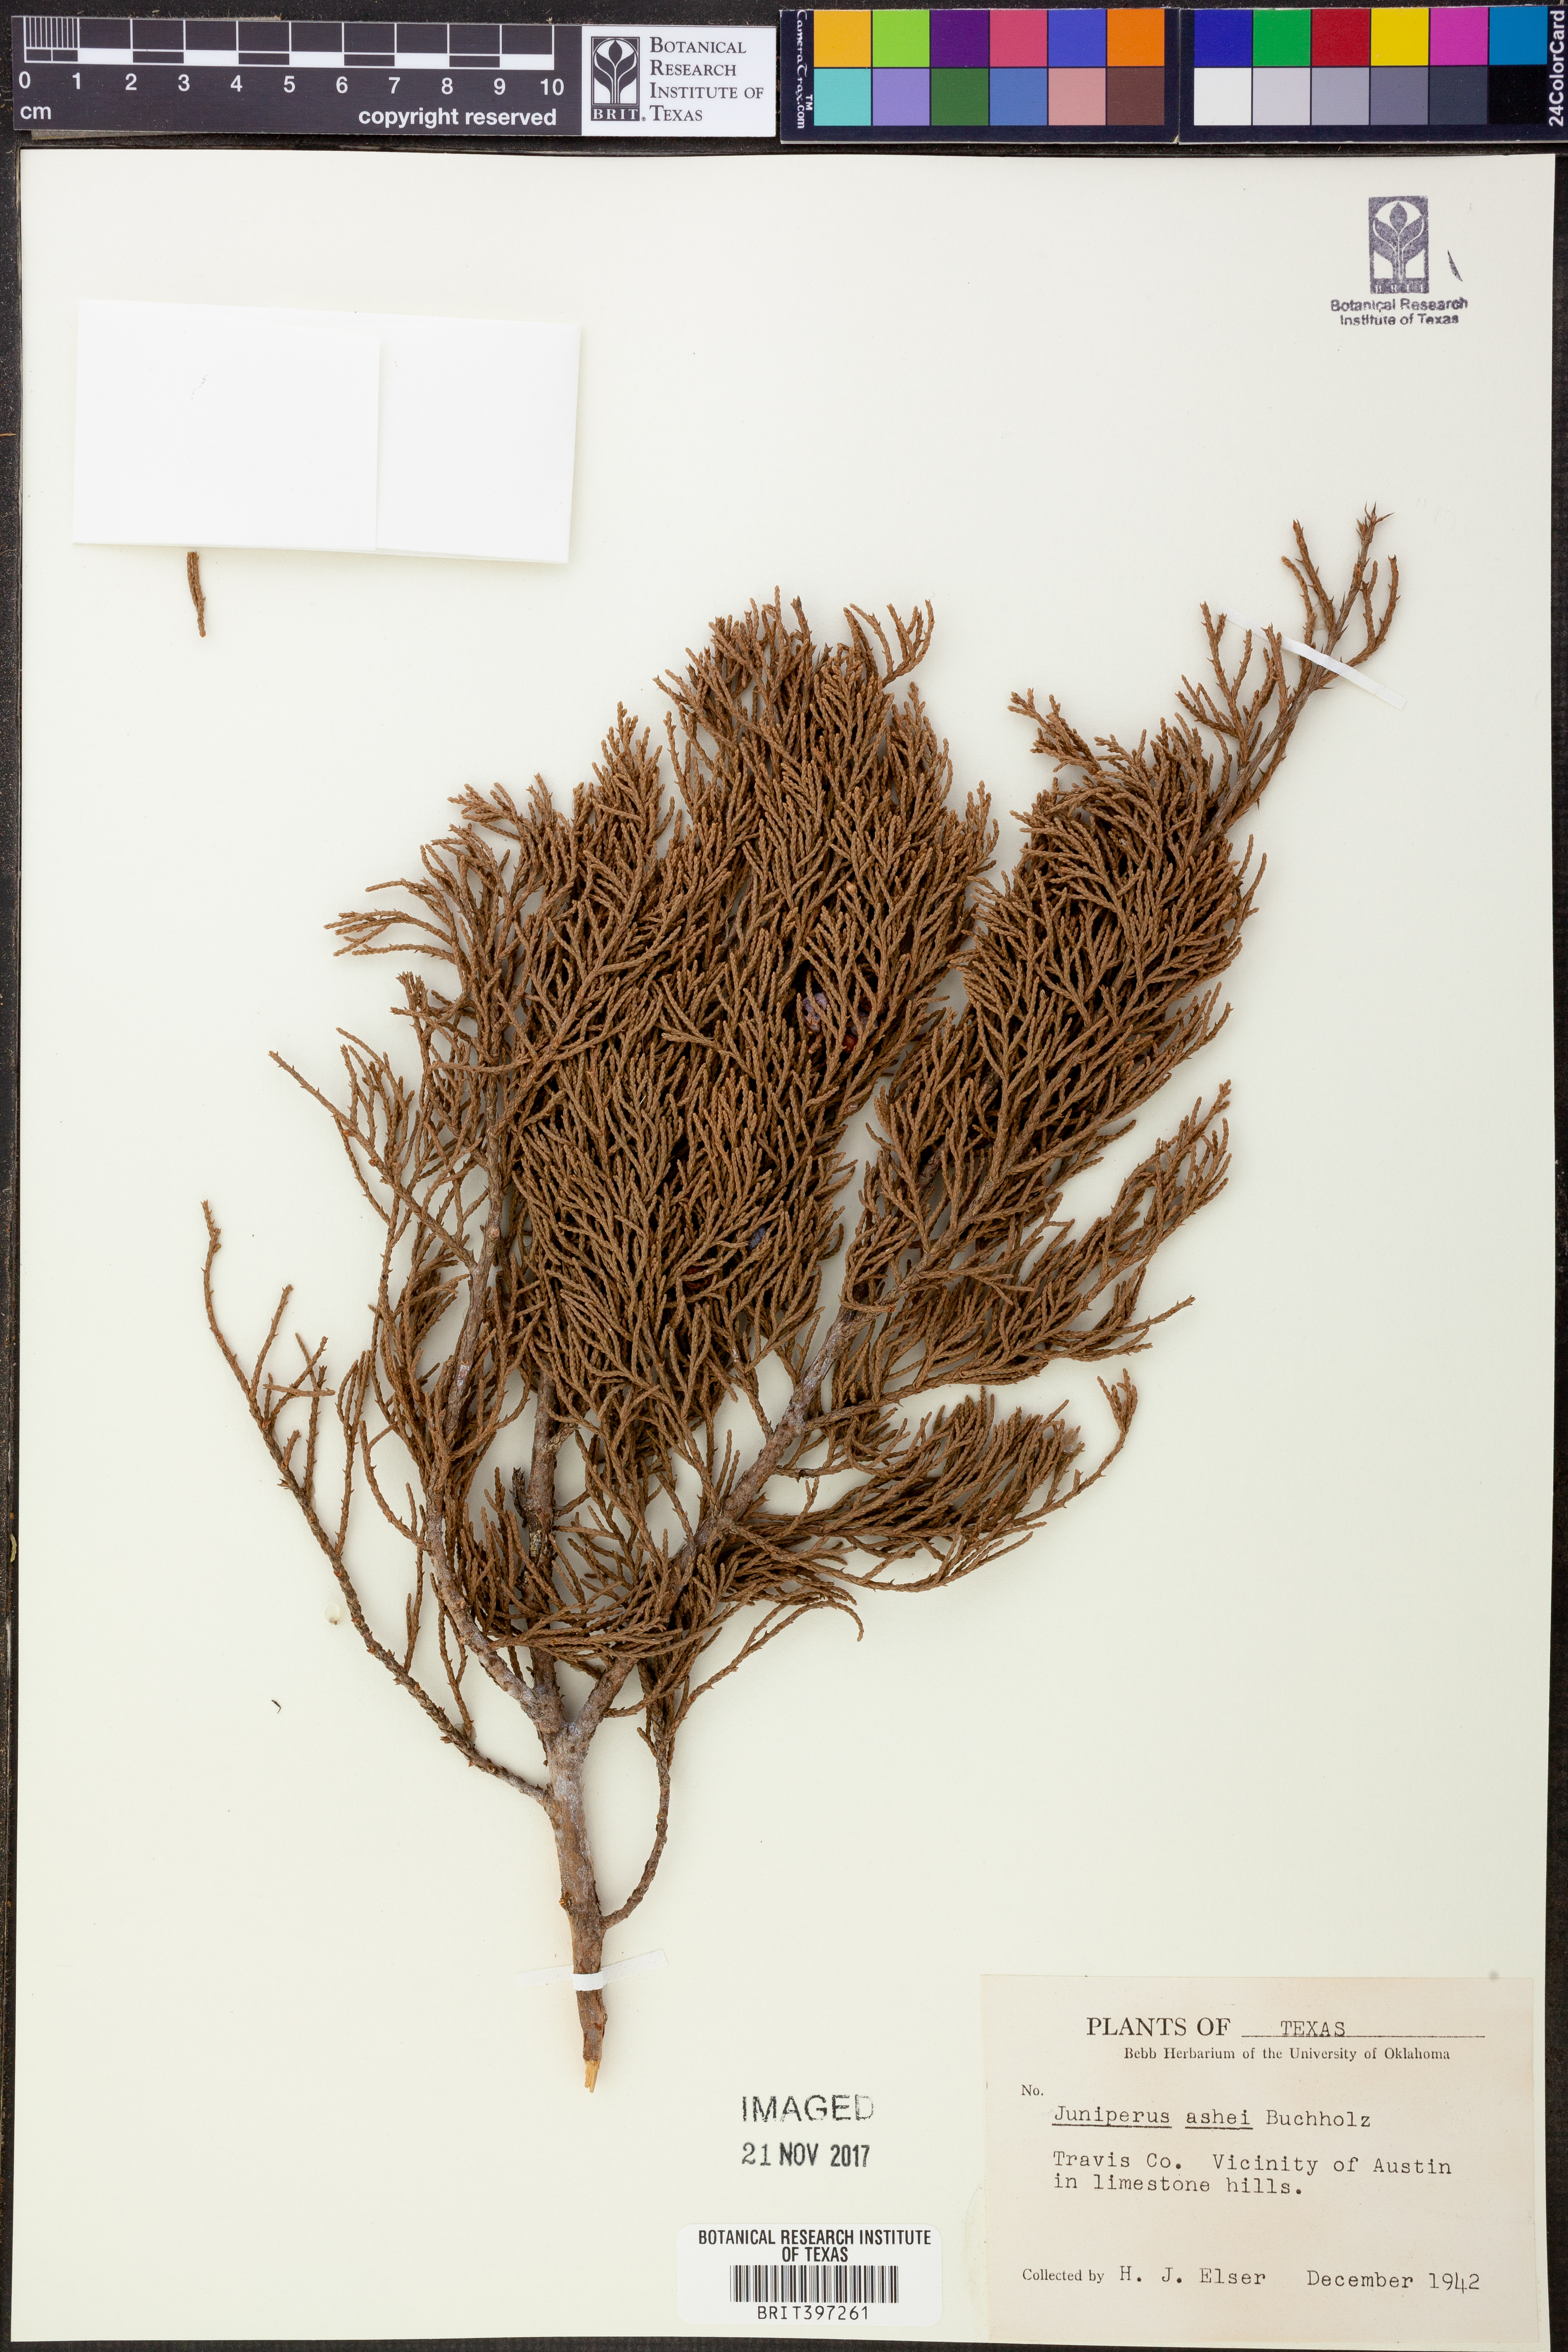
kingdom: Plantae
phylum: Tracheophyta
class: Pinopsida
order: Pinales
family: Cupressaceae
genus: Juniperus
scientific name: Juniperus ashei
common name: Mexican juniper
